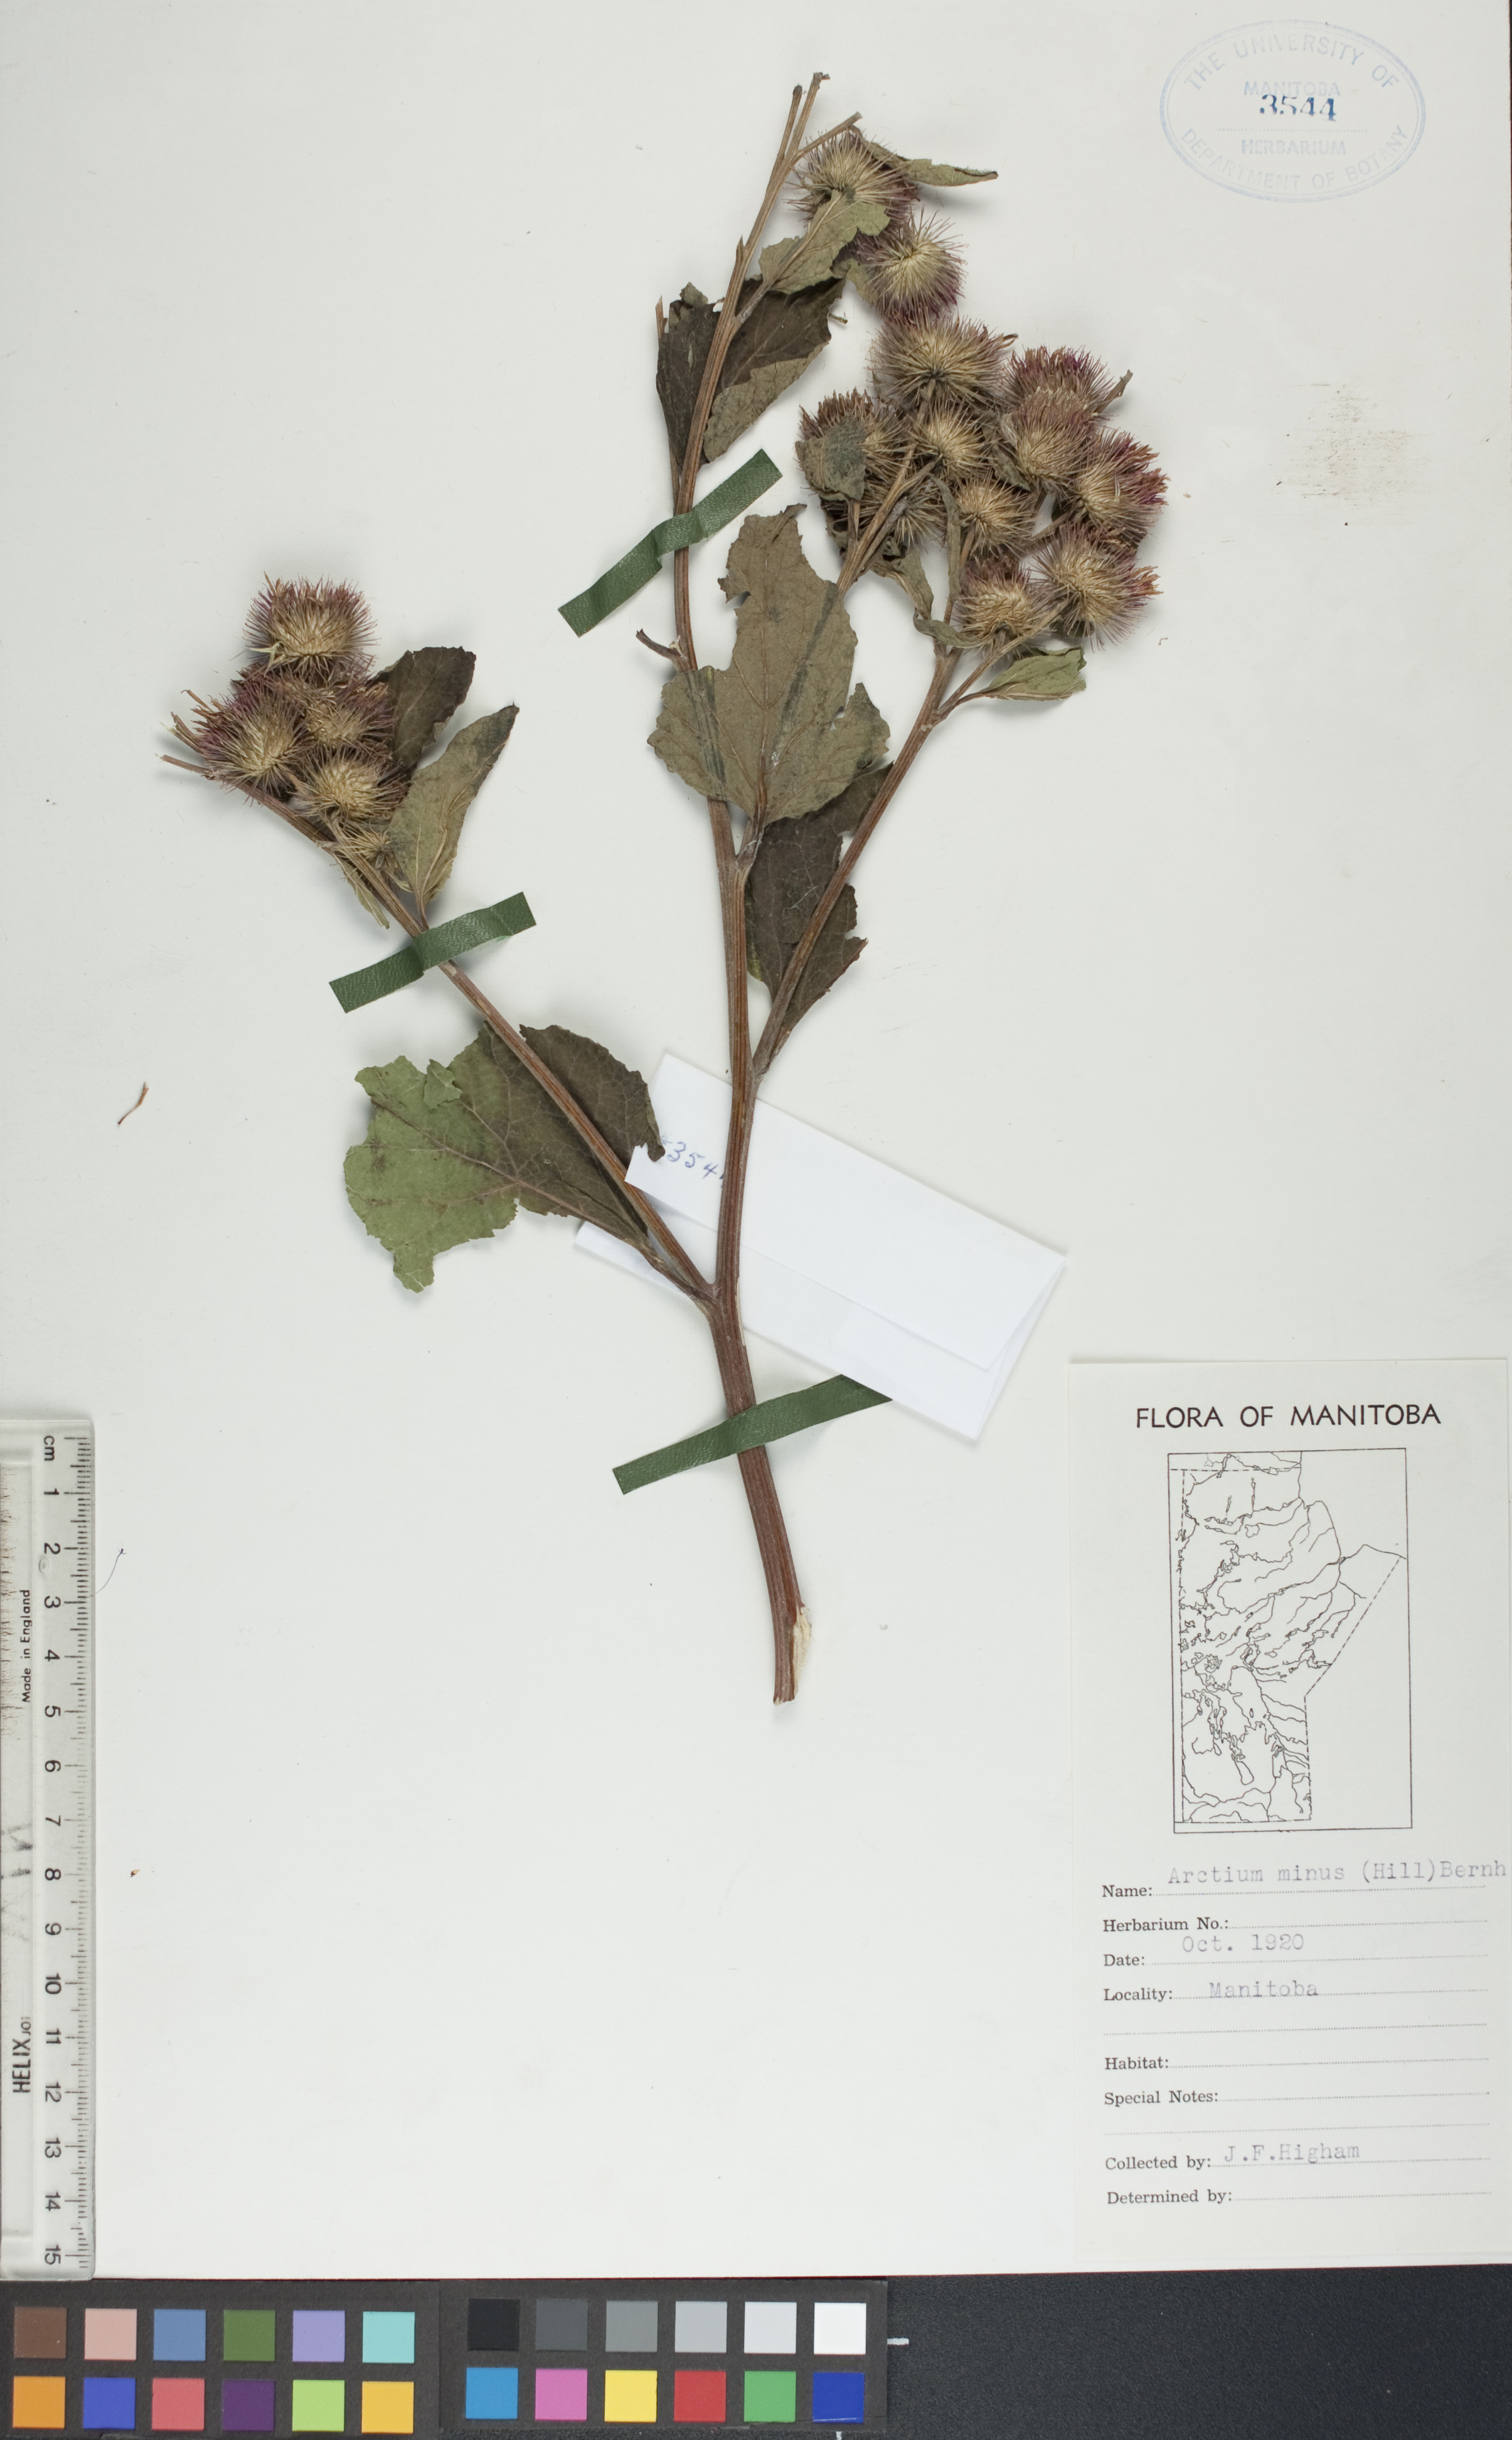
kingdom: Plantae
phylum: Tracheophyta
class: Magnoliopsida
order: Asterales
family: Asteraceae
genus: Arctium
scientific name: Arctium minus
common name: Lesser burdock
